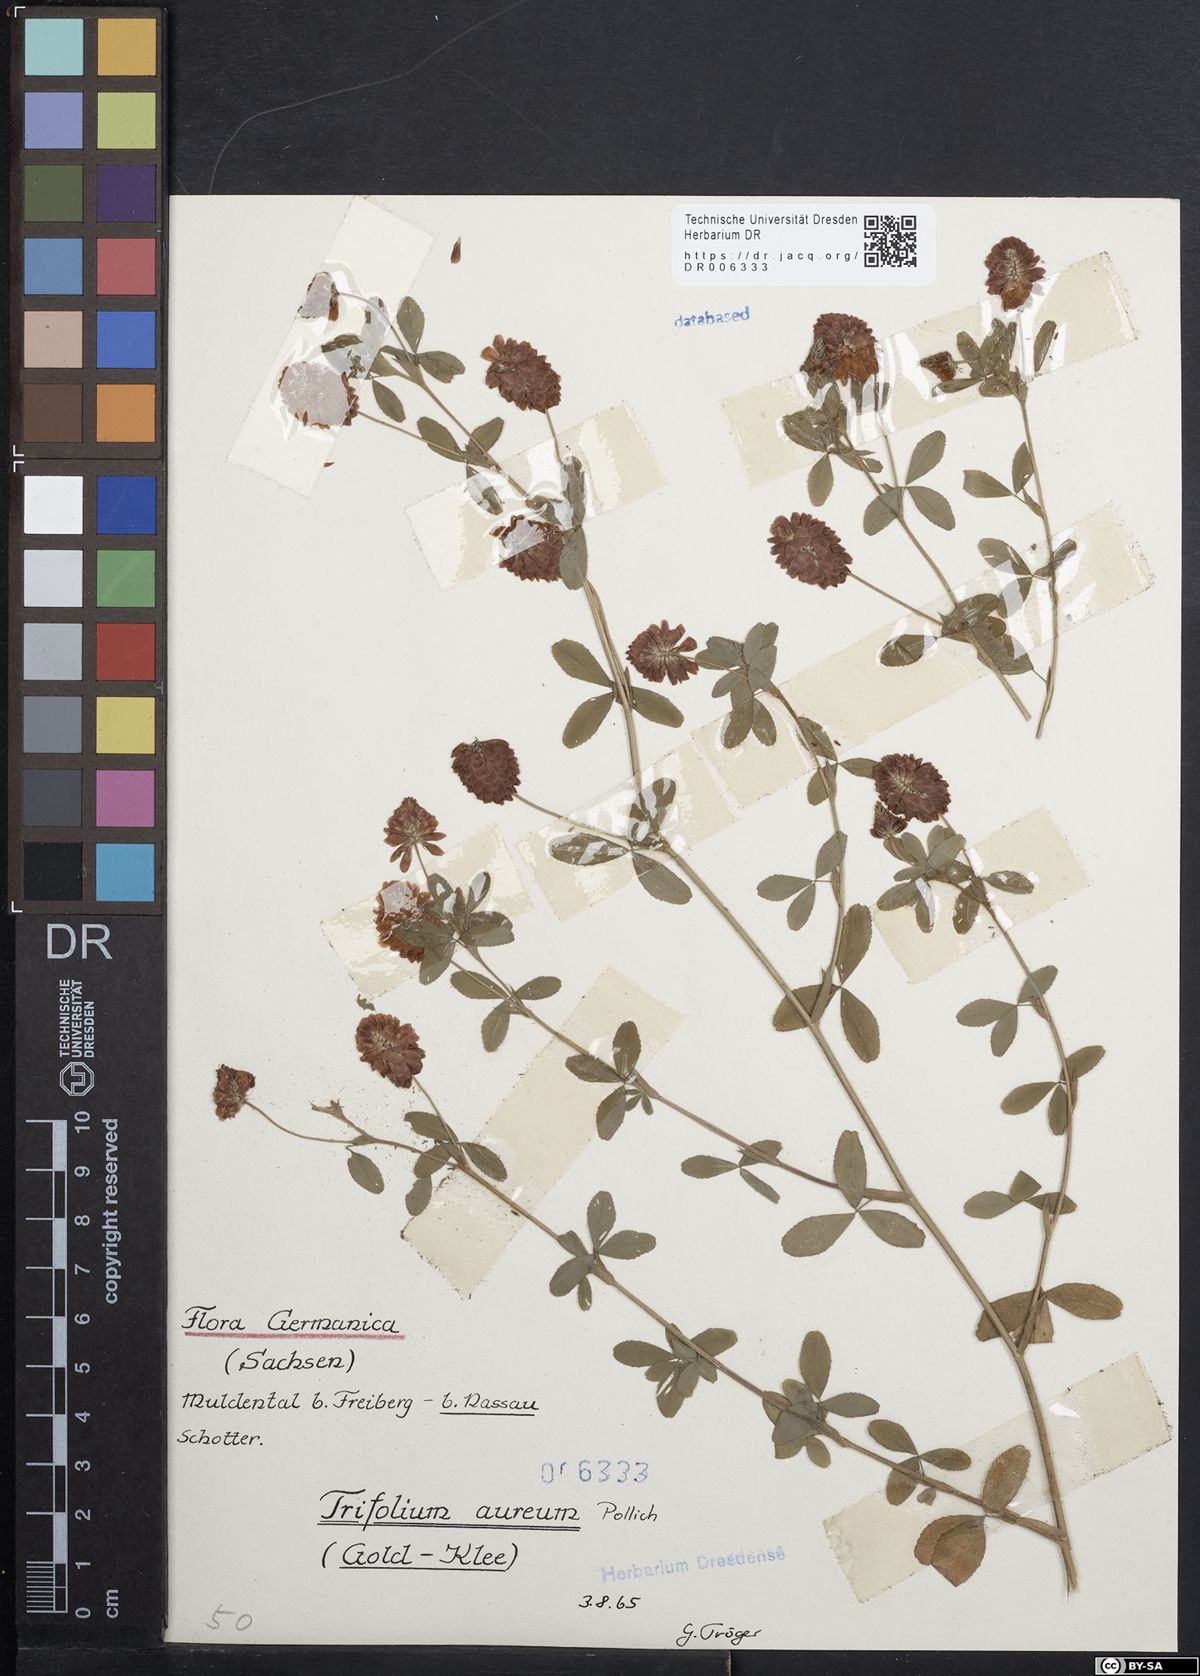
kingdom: Plantae
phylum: Tracheophyta
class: Magnoliopsida
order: Fabales
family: Fabaceae
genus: Trifolium
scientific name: Trifolium aureum
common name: Golden clover
